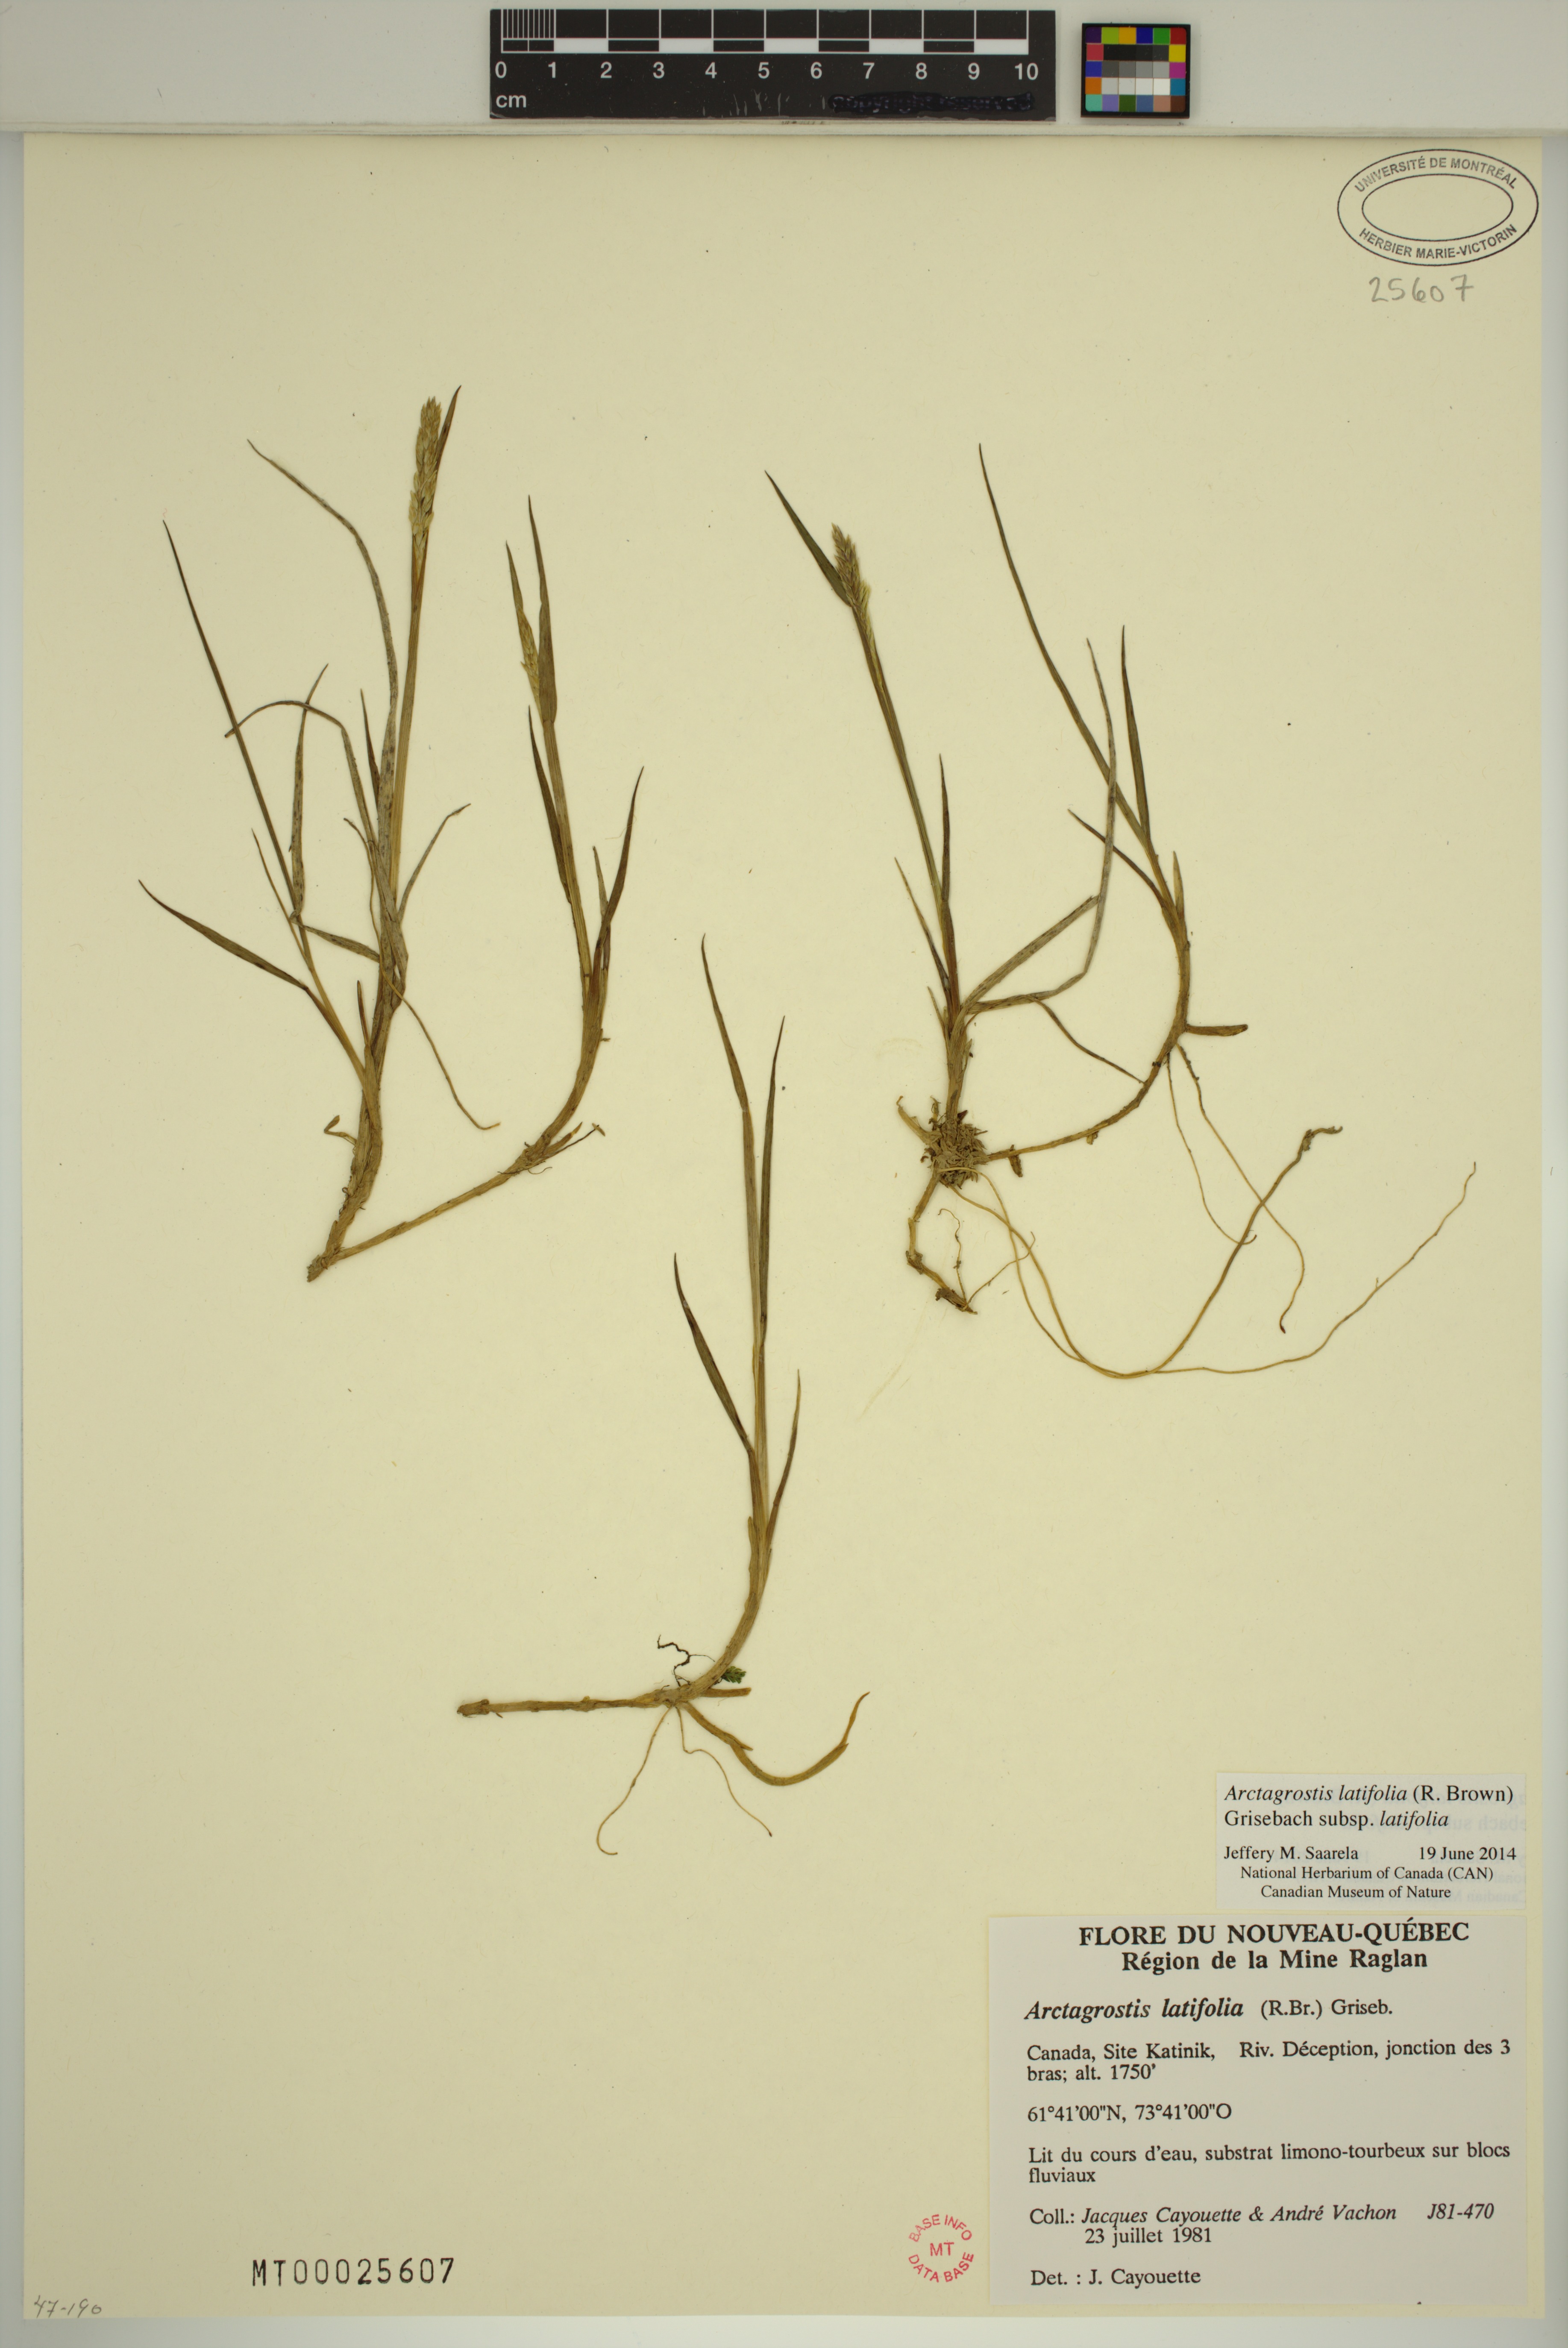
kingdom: Plantae
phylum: Tracheophyta
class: Liliopsida
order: Poales
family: Poaceae
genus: Arctagrostis
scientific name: Arctagrostis latifolia
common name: Arctic grass
